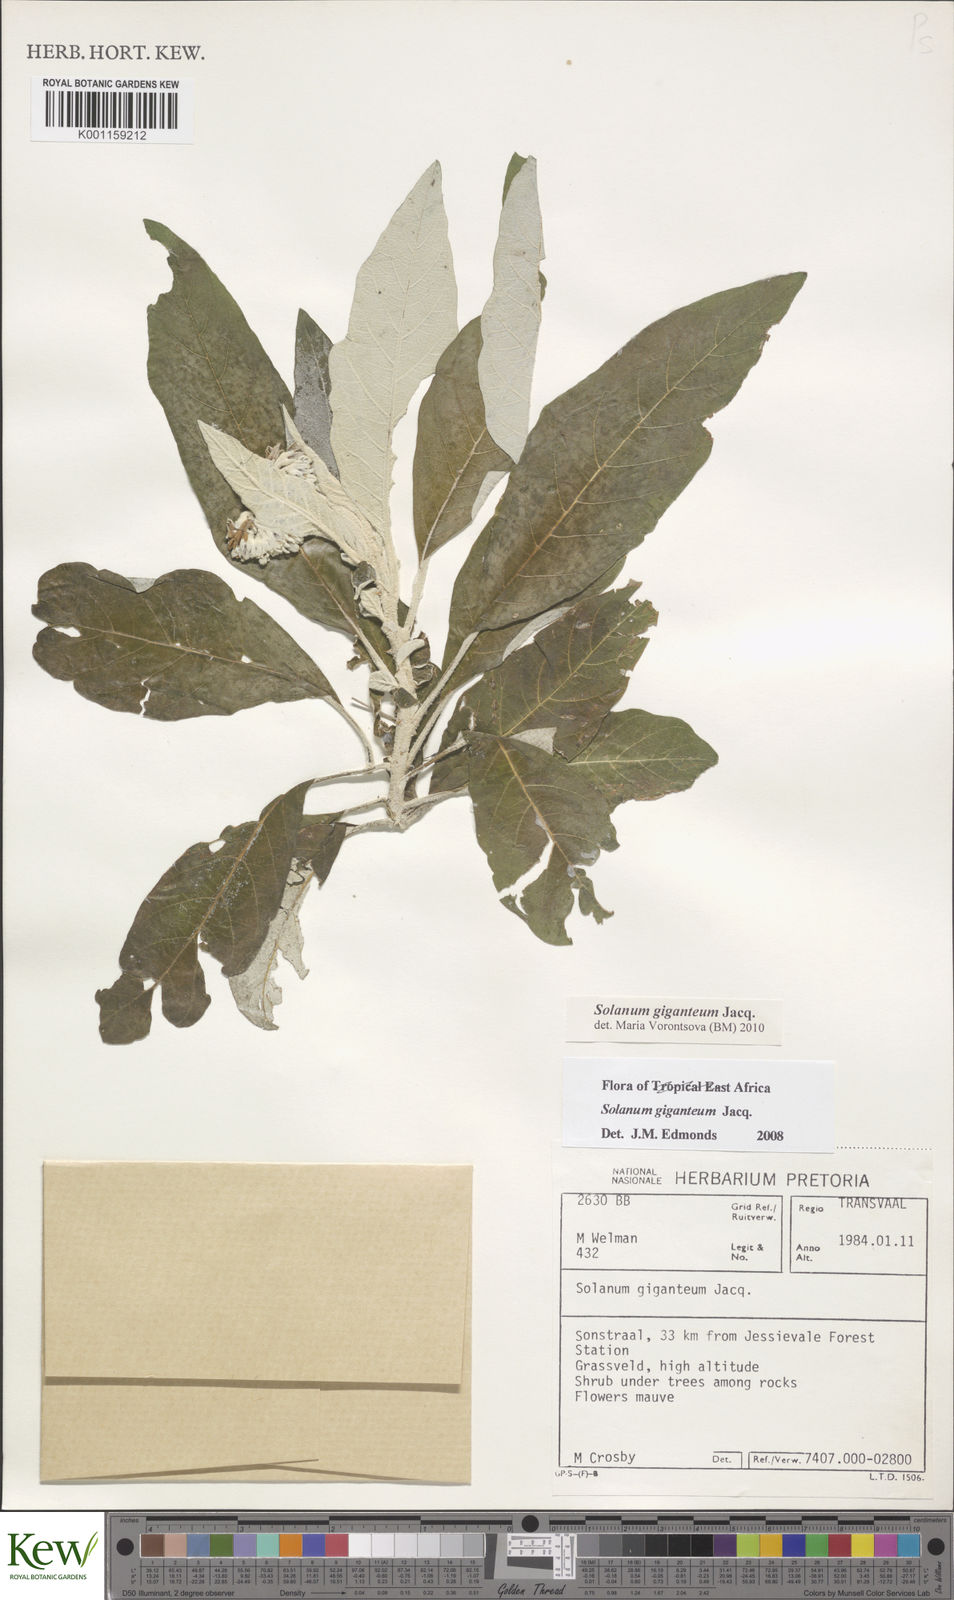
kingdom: Plantae
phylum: Tracheophyta
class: Magnoliopsida
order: Solanales
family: Solanaceae
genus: Solanum
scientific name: Solanum giganteum
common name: Healing-leaf-tree
